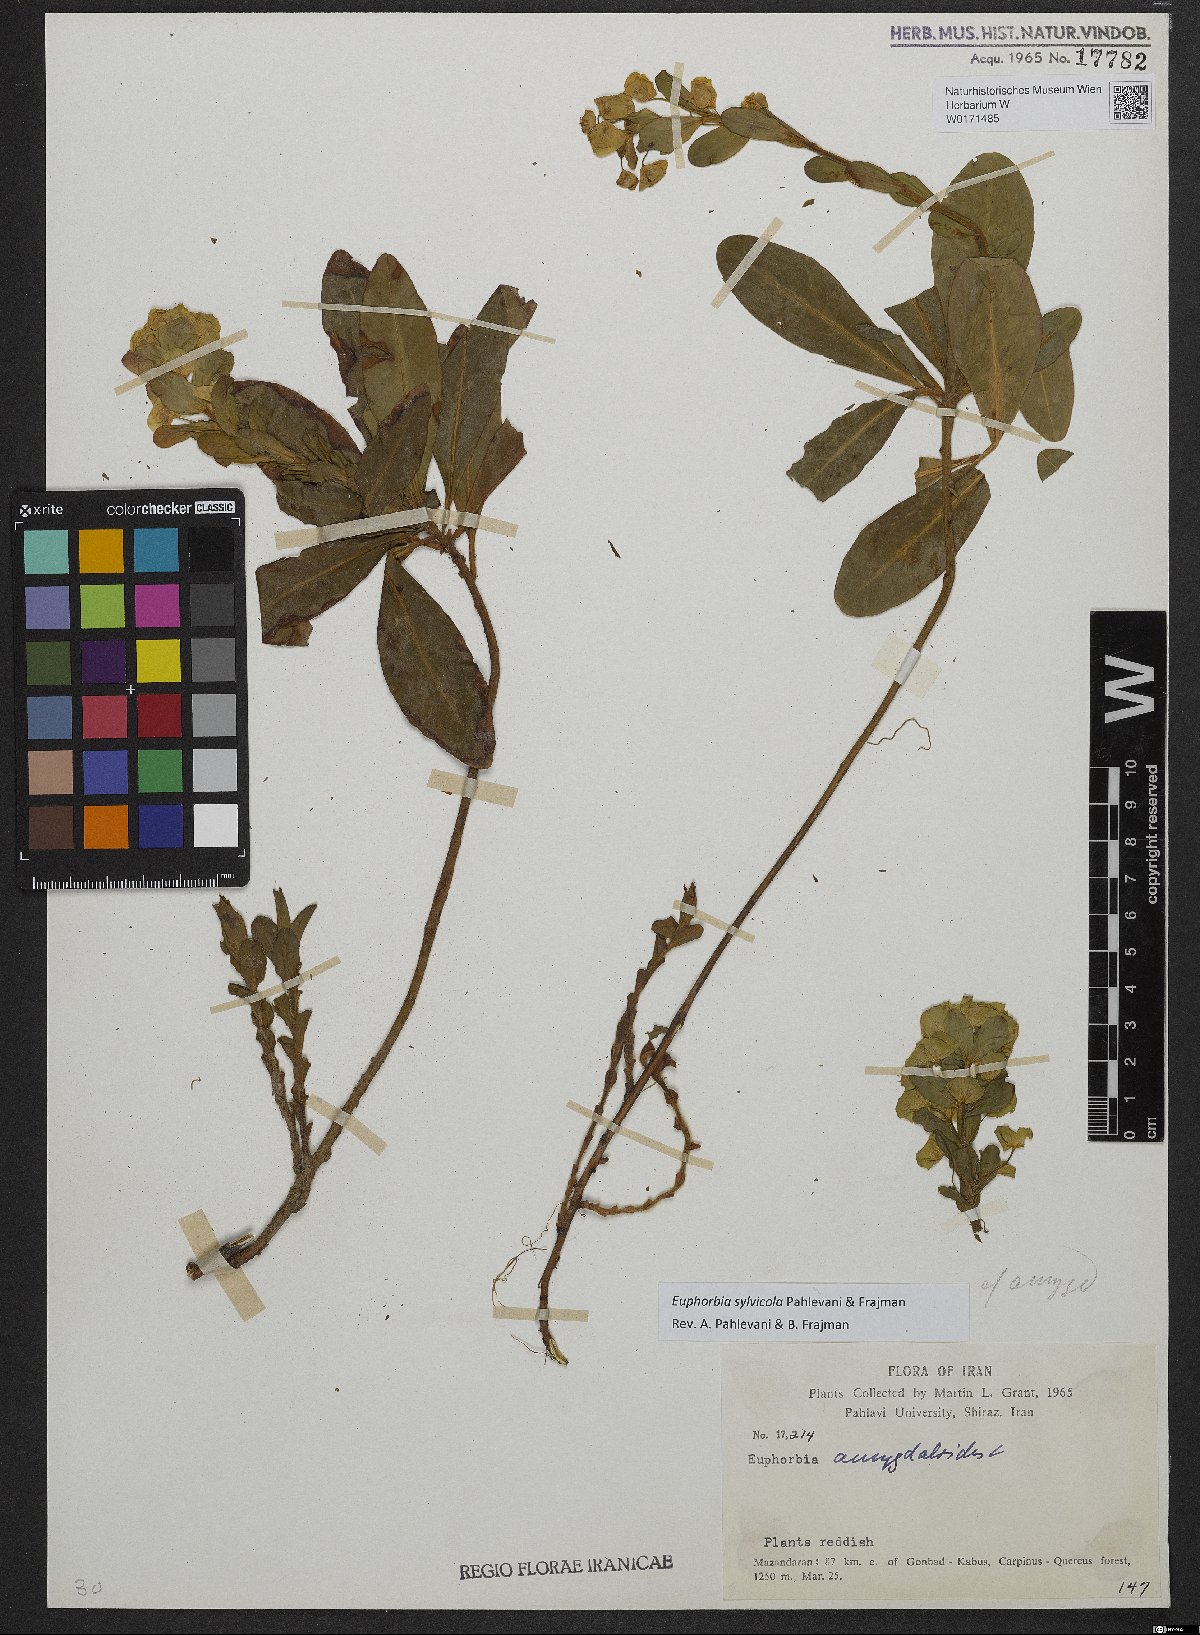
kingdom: Plantae
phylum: Tracheophyta
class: Magnoliopsida
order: Malpighiales
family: Euphorbiaceae
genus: Euphorbia
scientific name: Euphorbia juttae
